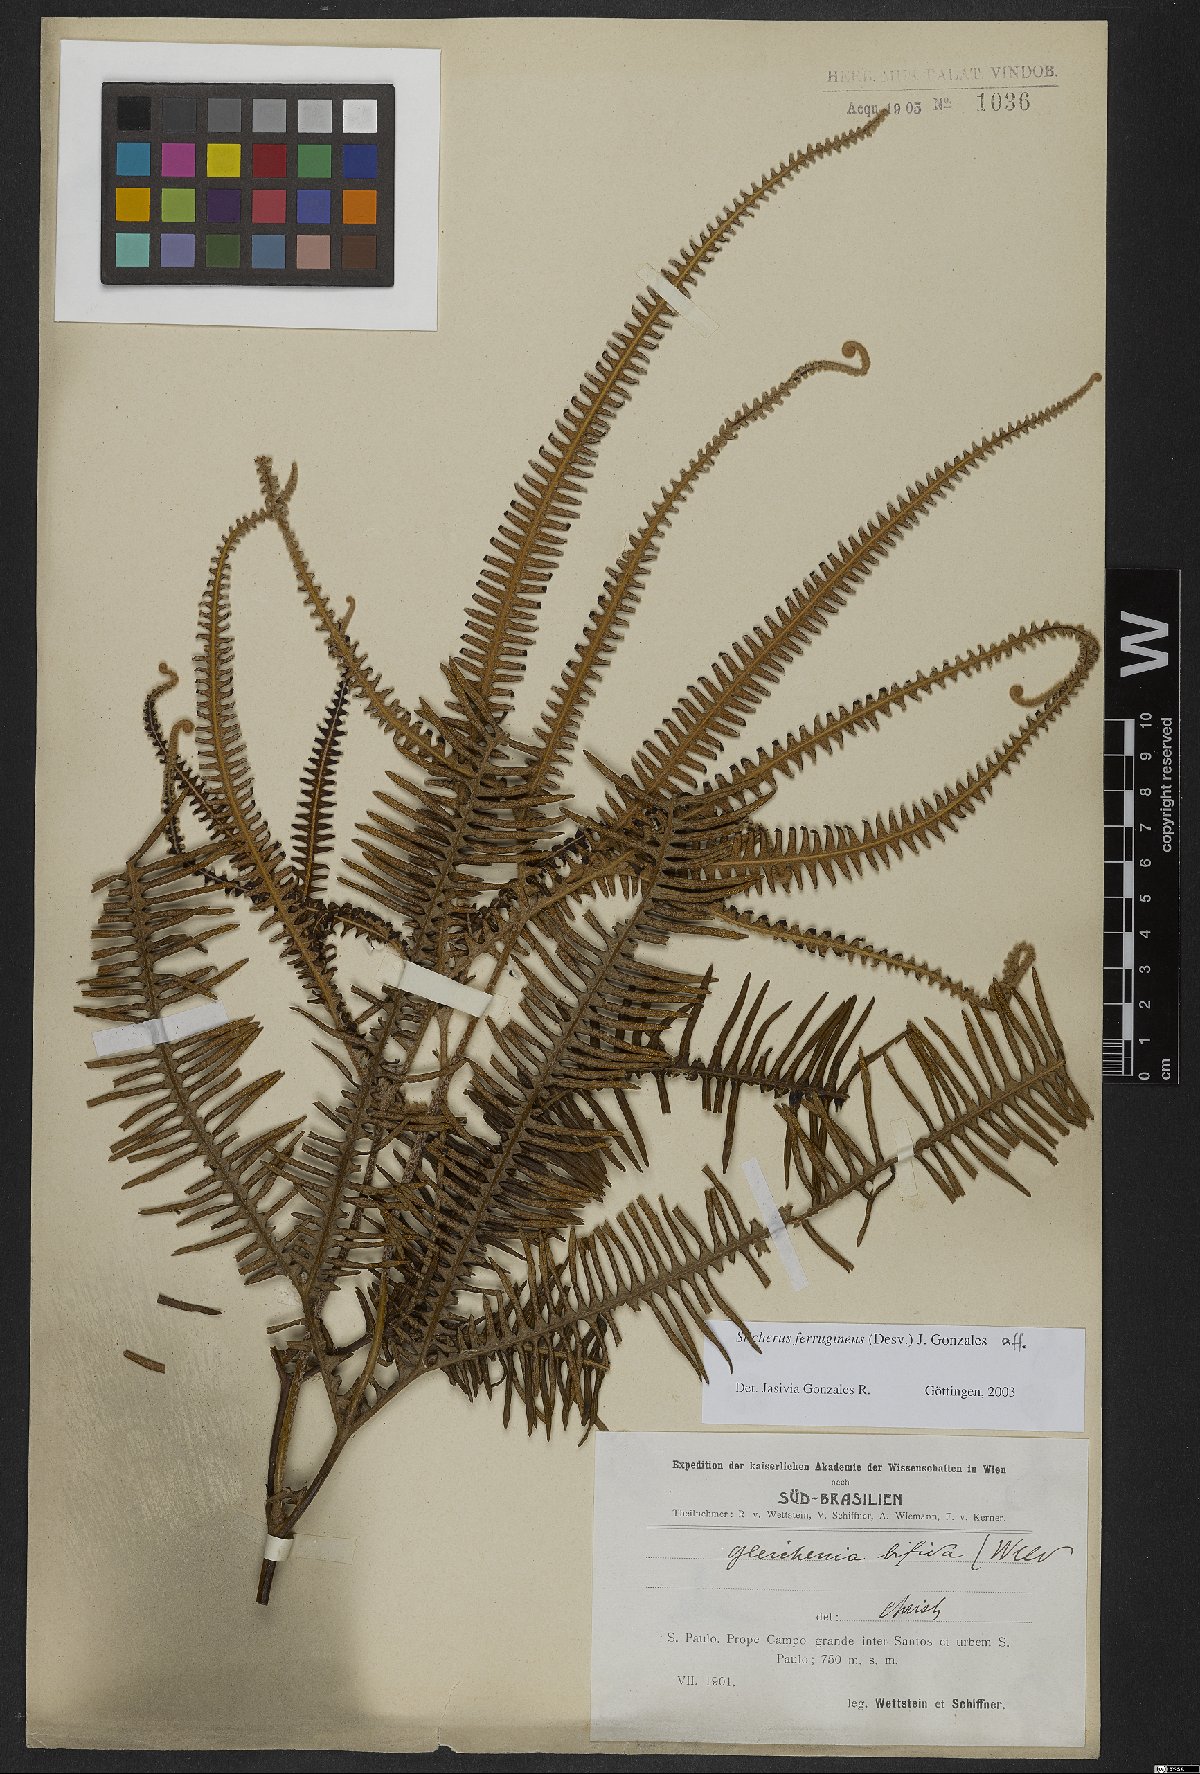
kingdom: Plantae
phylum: Tracheophyta
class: Polypodiopsida
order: Gleicheniales
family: Gleicheniaceae
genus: Sticherus
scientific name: Sticherus ferrugineus
